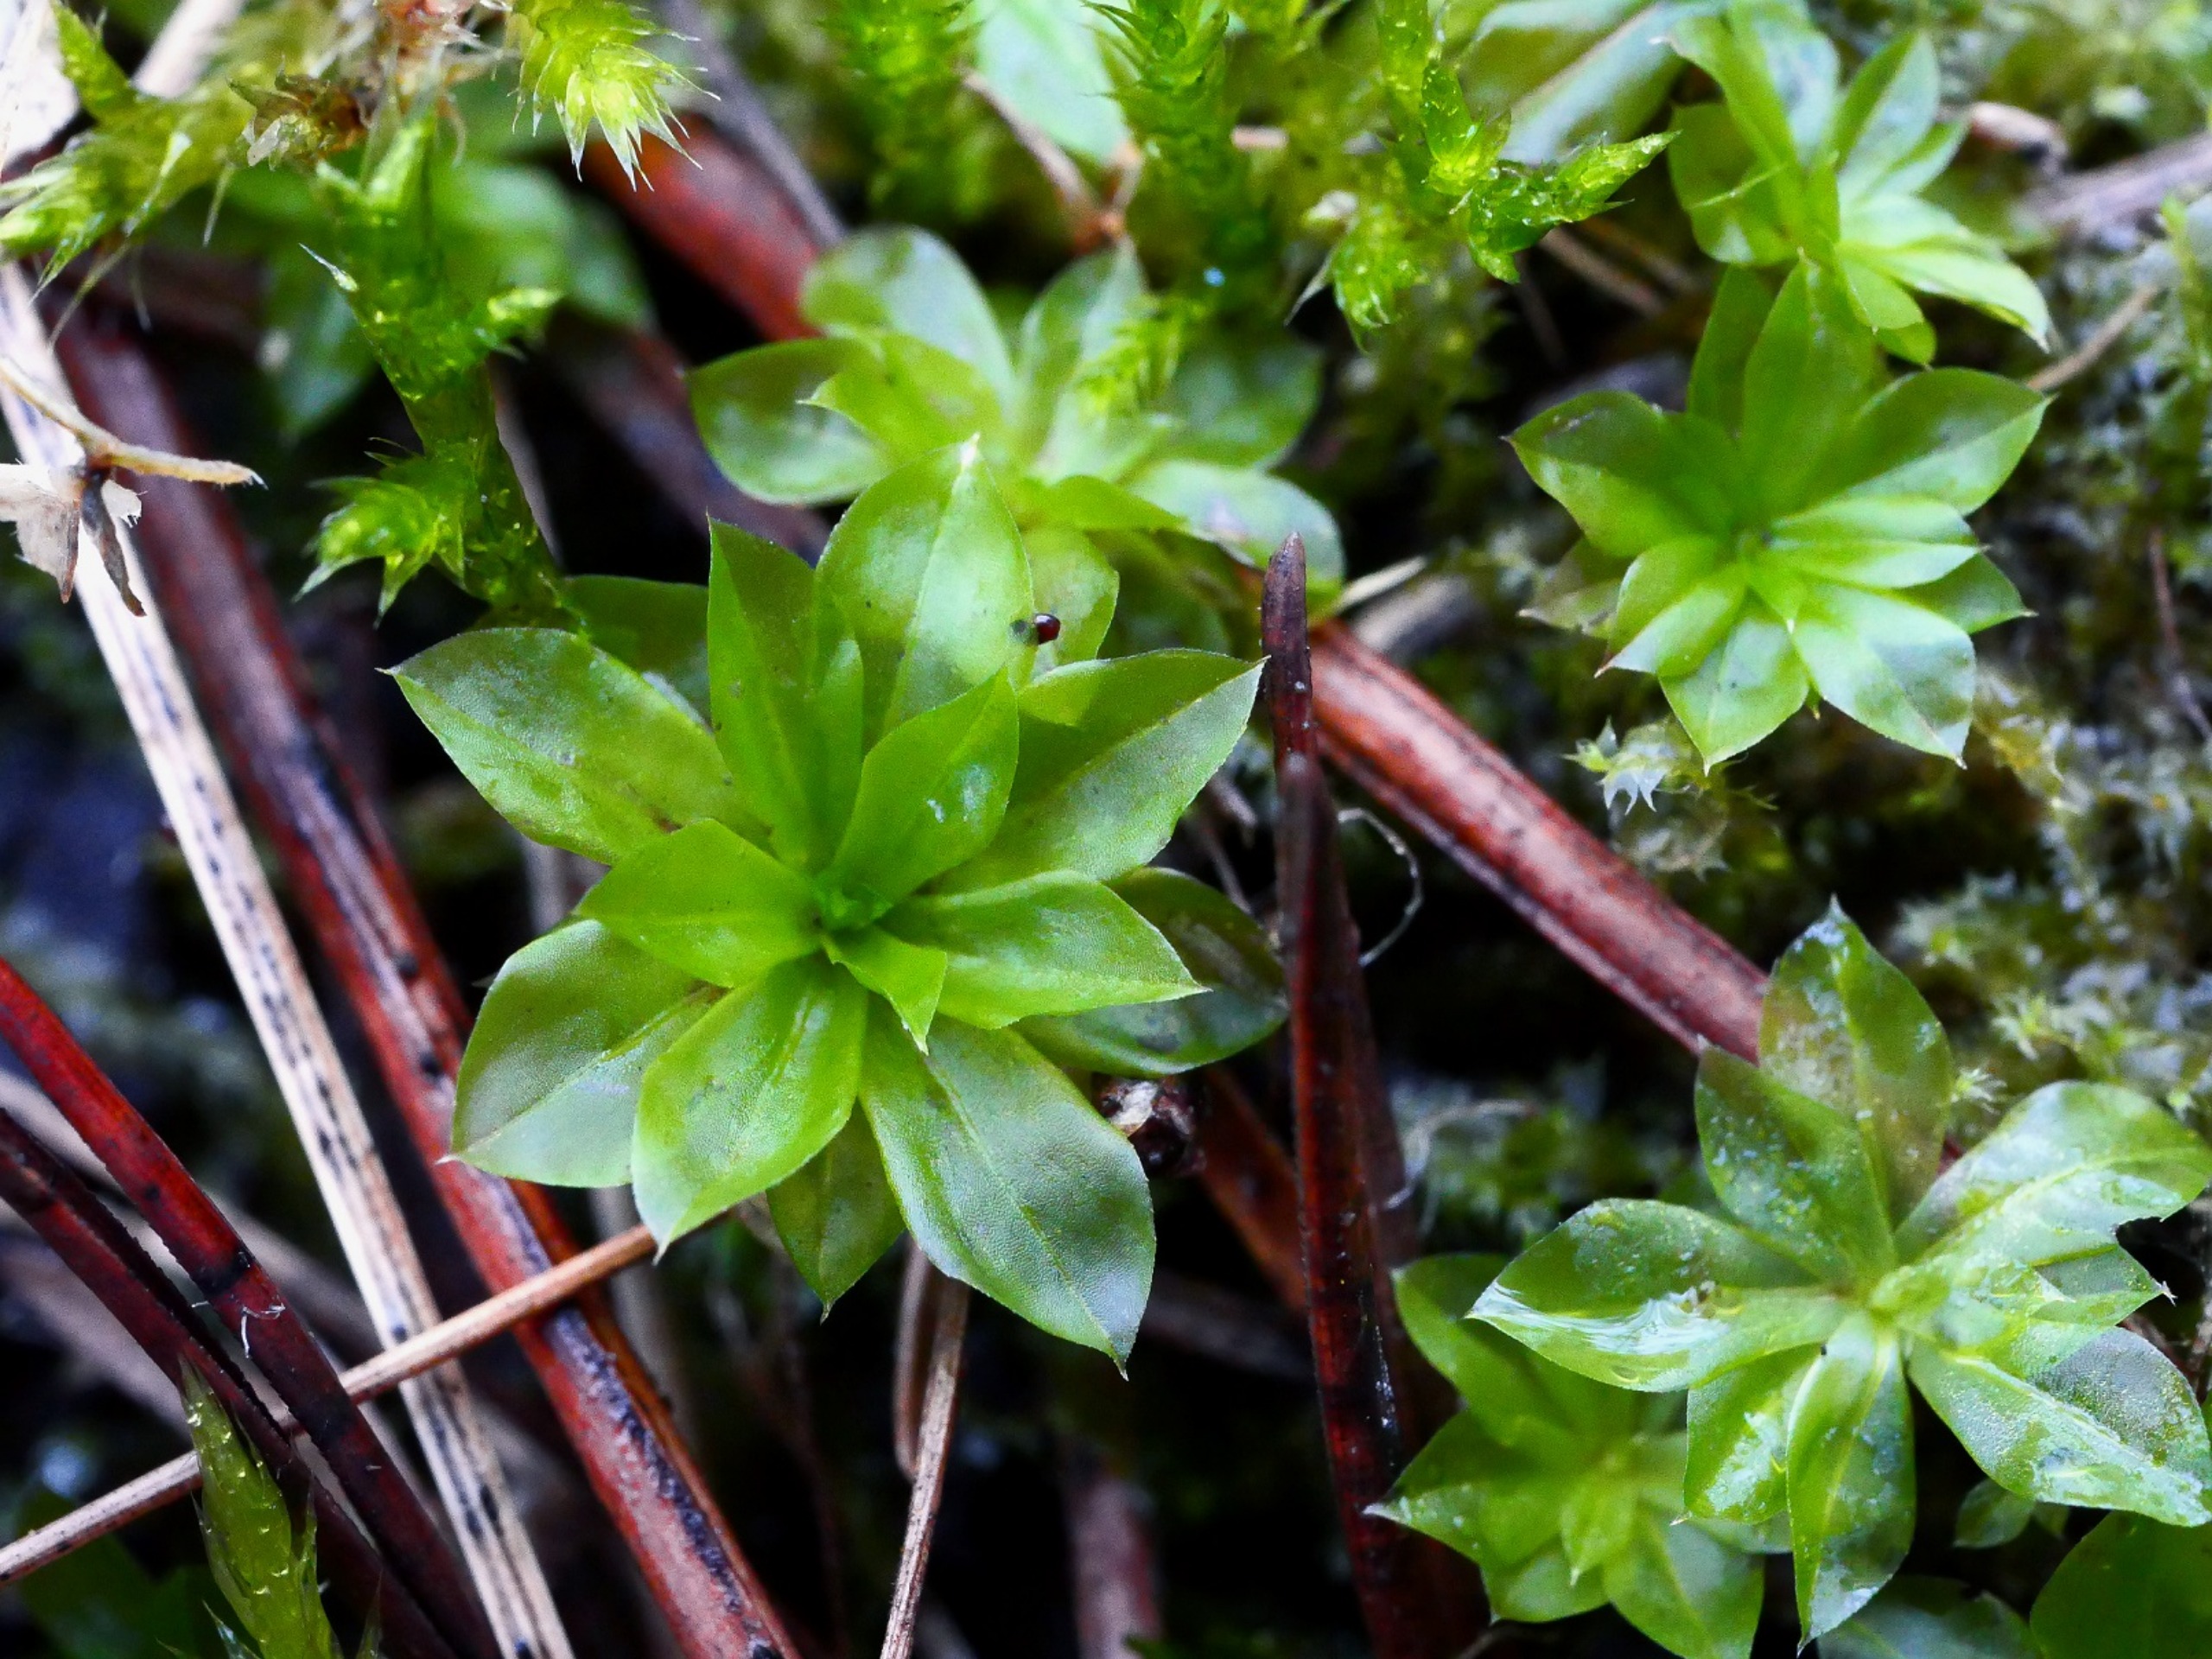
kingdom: Plantae
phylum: Bryophyta
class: Bryopsida
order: Bryales
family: Bryaceae
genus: Rhodobryum
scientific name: Rhodobryum roseum
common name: Stor rosetmos
